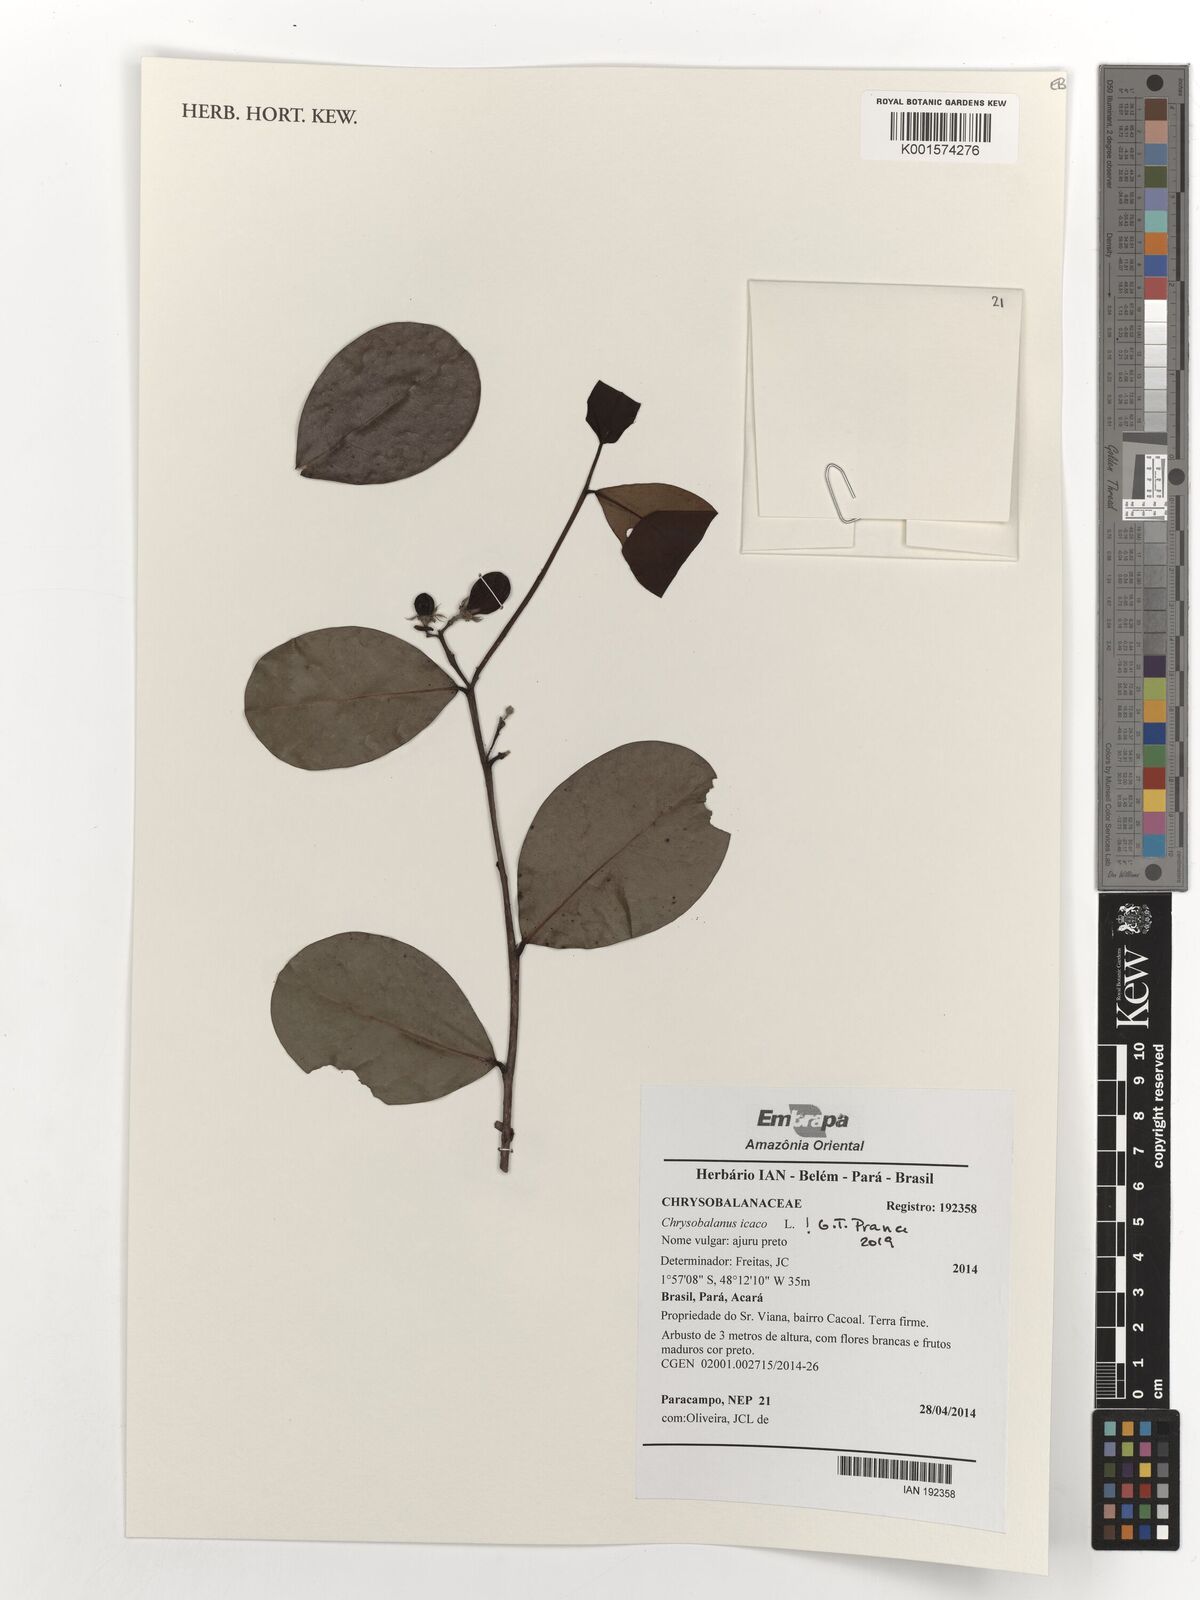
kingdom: Plantae
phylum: Tracheophyta
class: Magnoliopsida
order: Malpighiales
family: Chrysobalanaceae
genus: Chrysobalanus
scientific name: Chrysobalanus icaco
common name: Coco plum
